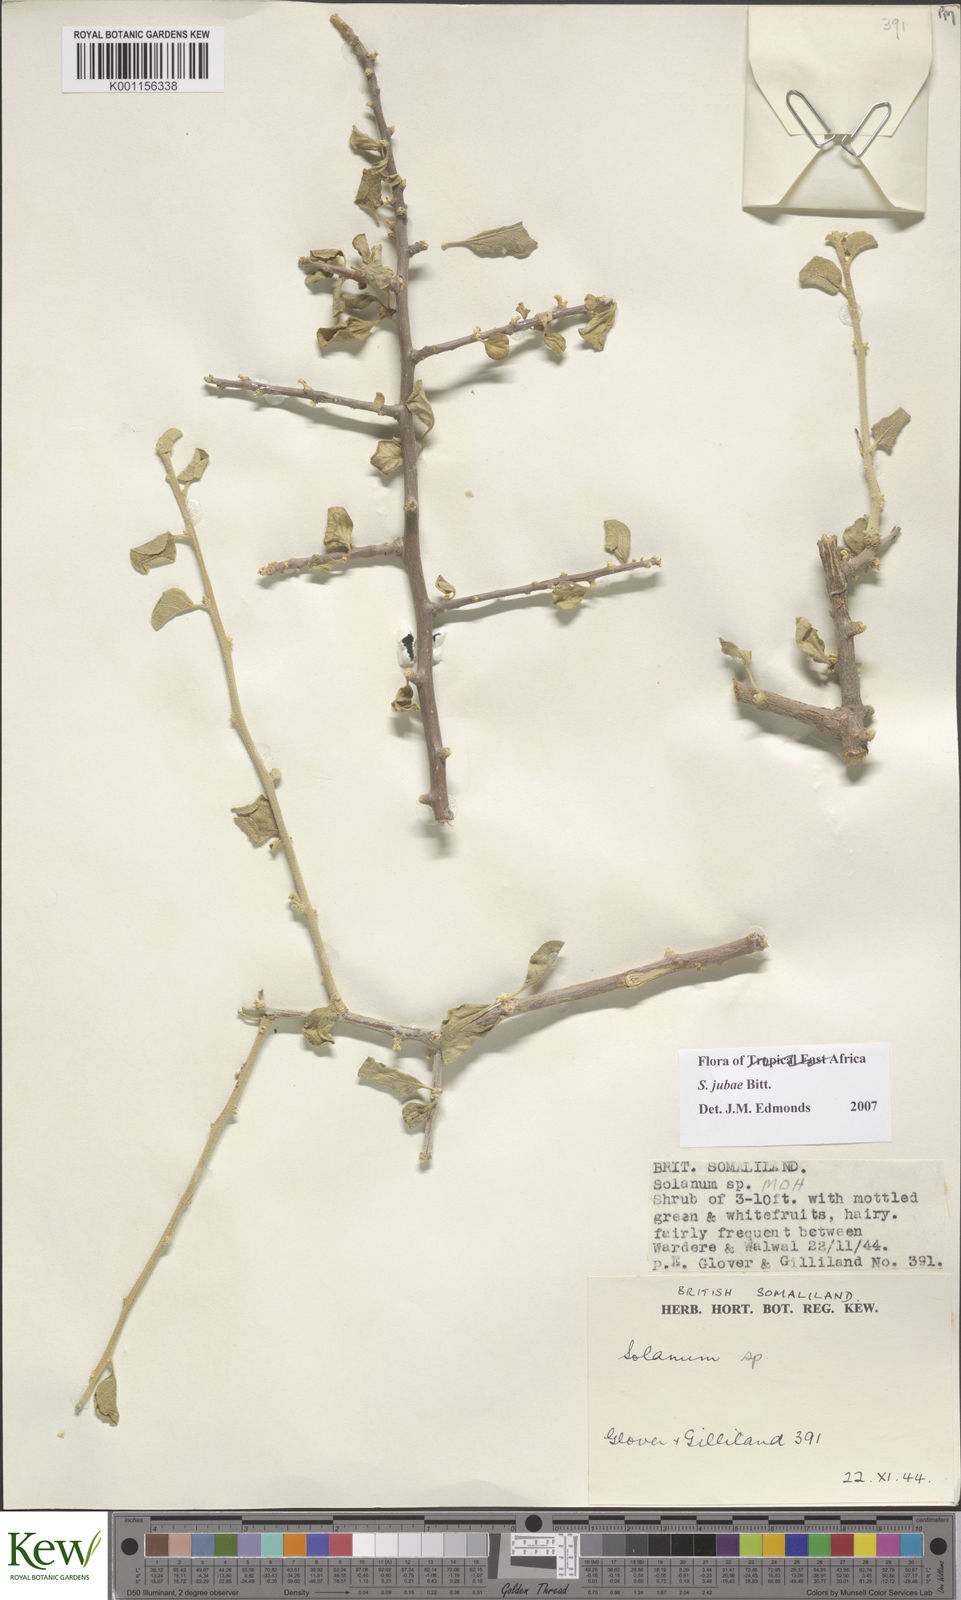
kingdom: Plantae
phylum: Tracheophyta
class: Magnoliopsida
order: Solanales
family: Solanaceae
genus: Solanum
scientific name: Solanum jubae
